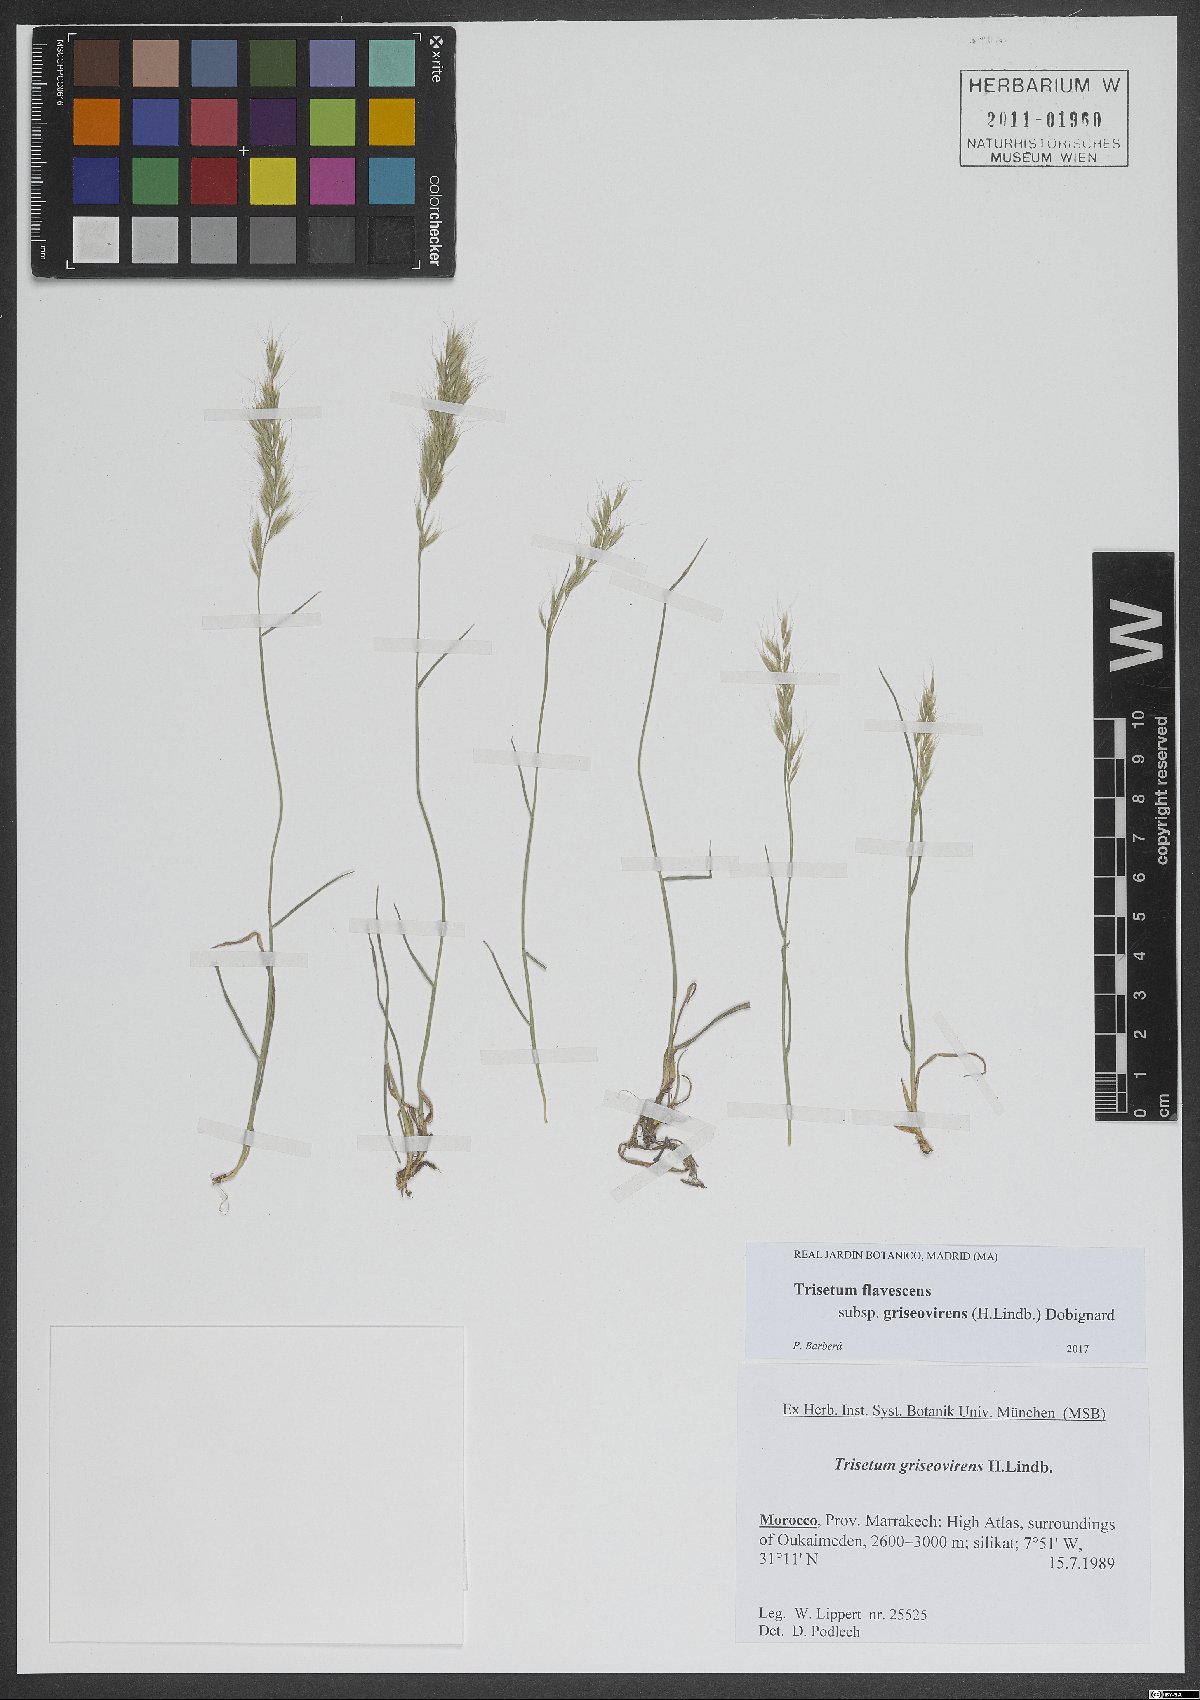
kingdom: Plantae
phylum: Tracheophyta
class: Liliopsida
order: Poales
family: Poaceae
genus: Trisetum
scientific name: Trisetum
